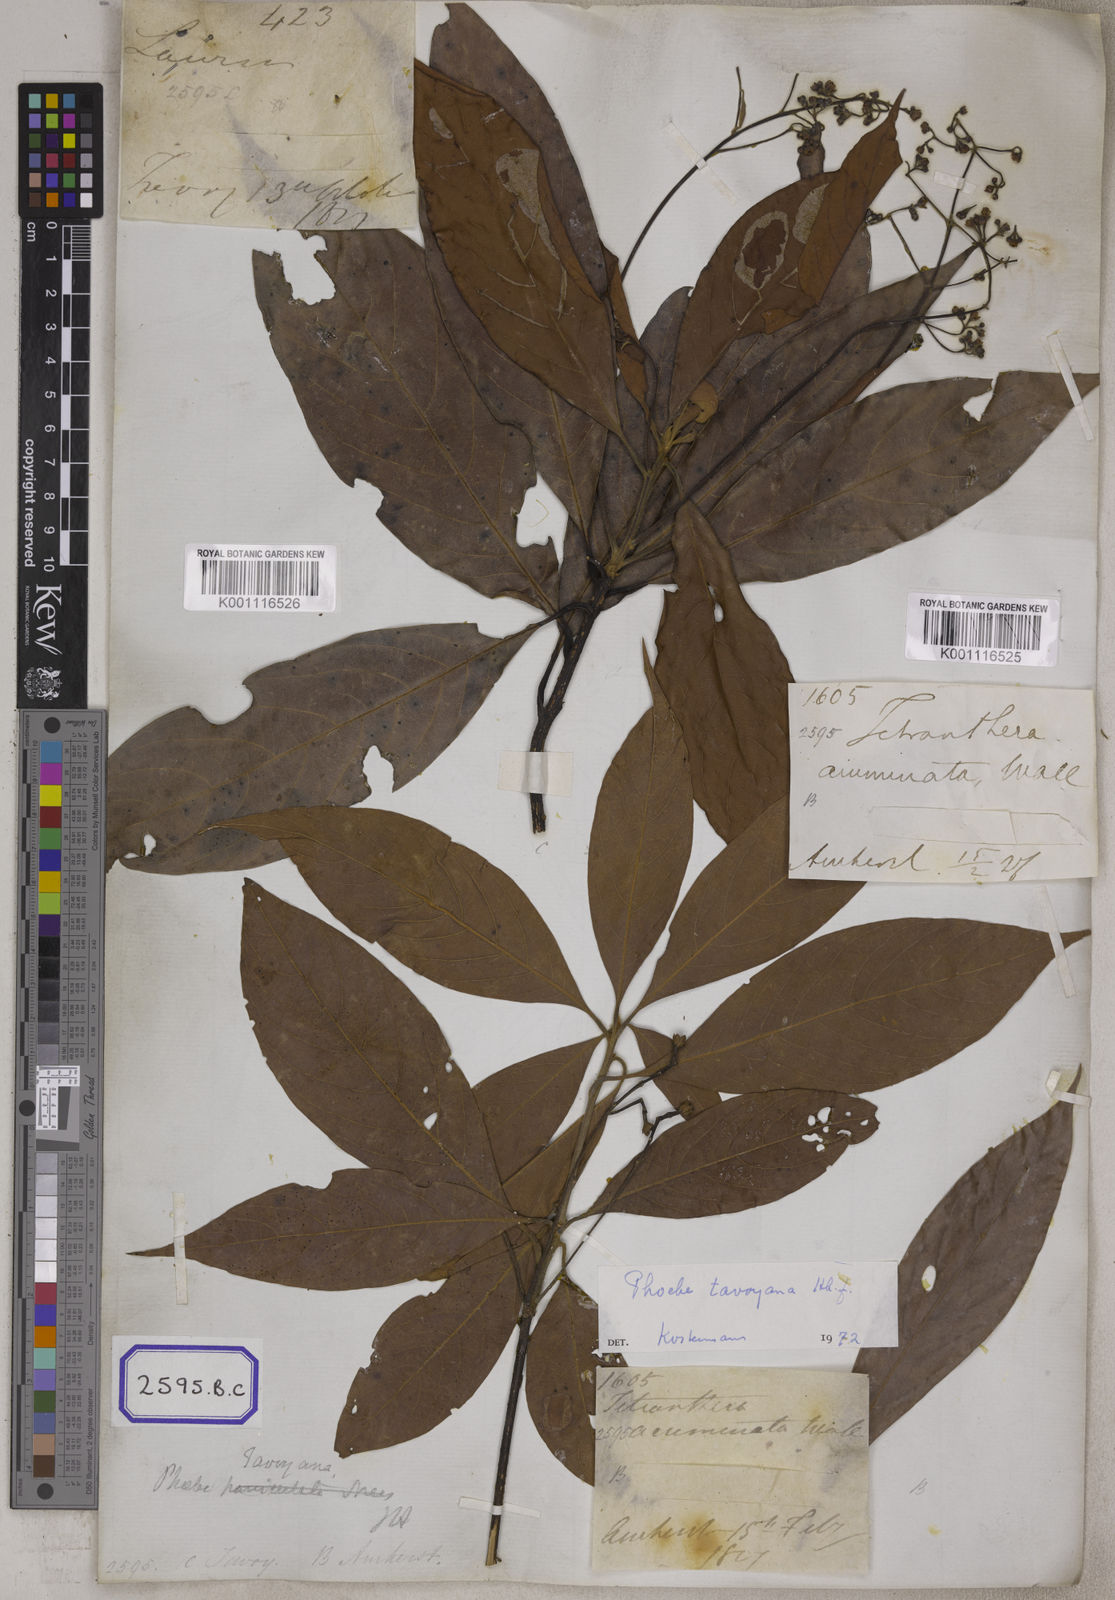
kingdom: Plantae
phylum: Tracheophyta
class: Magnoliopsida
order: Laurales
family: Lauraceae
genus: Phoebe
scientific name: Phoebe pallida
